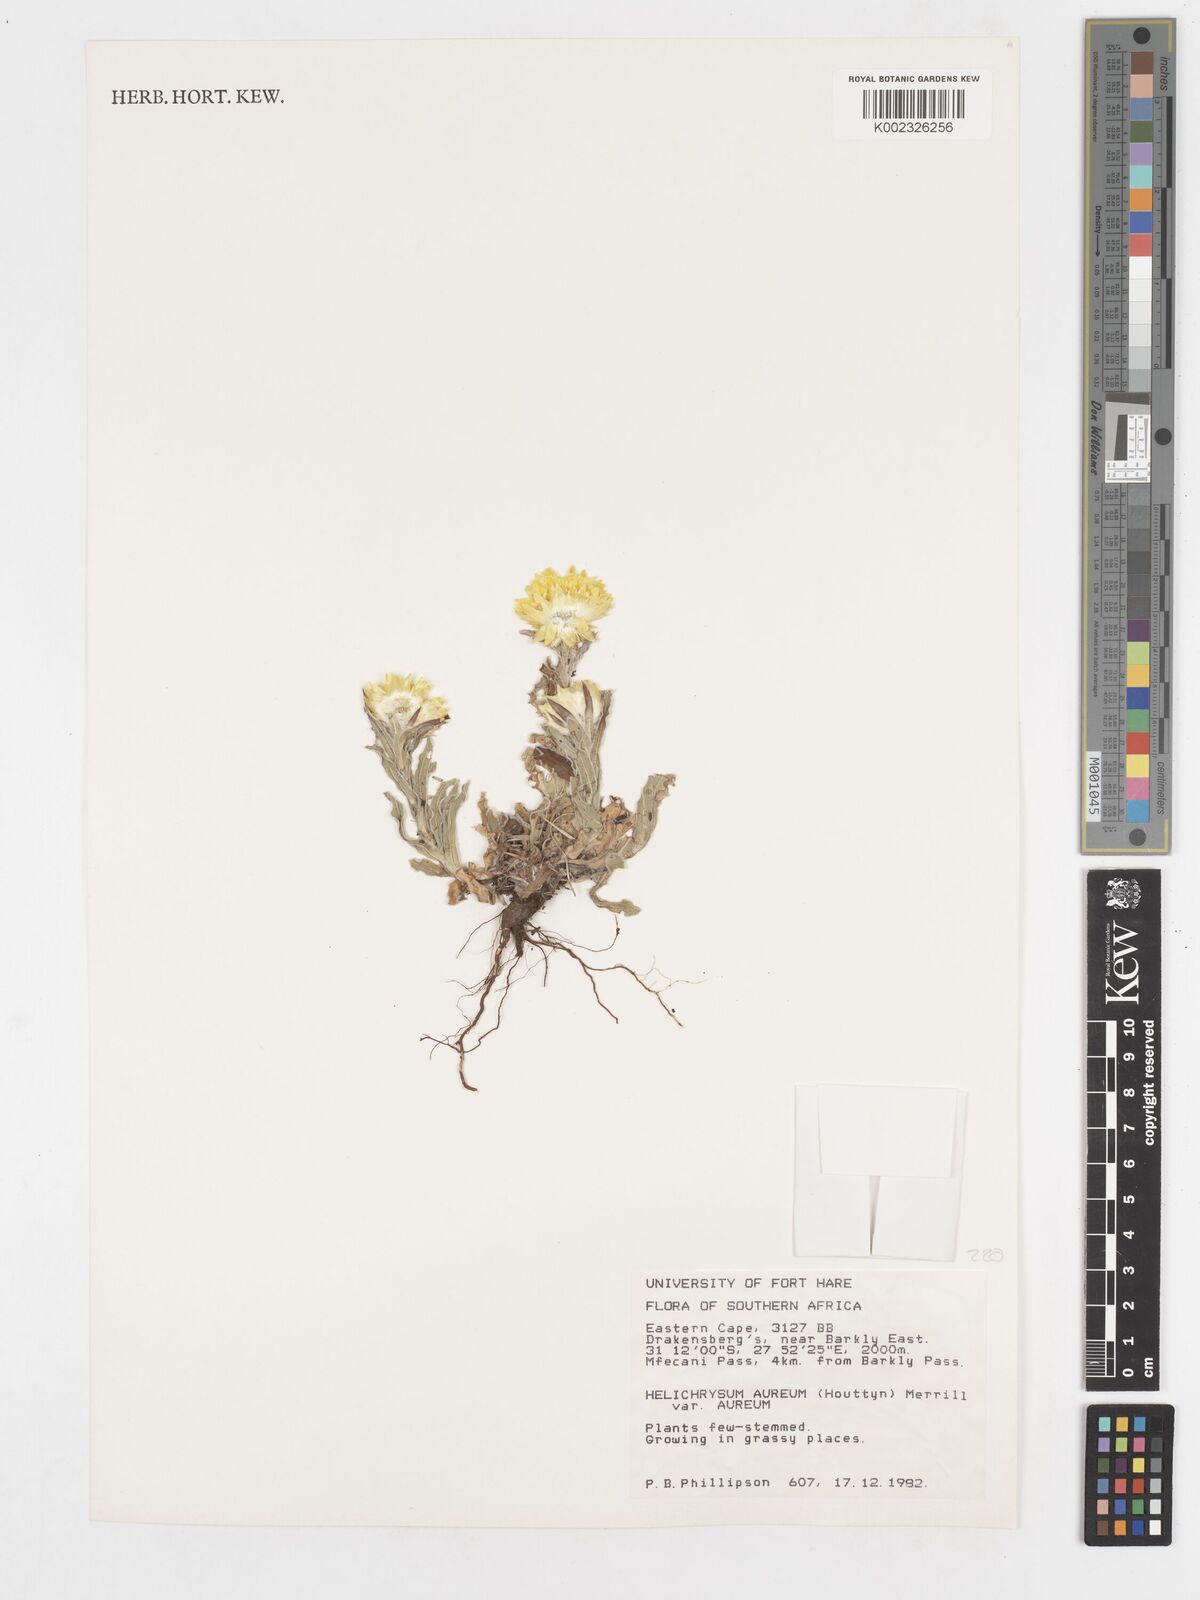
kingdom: Plantae
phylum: Tracheophyta
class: Magnoliopsida
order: Asterales
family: Asteraceae
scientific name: Asteraceae
